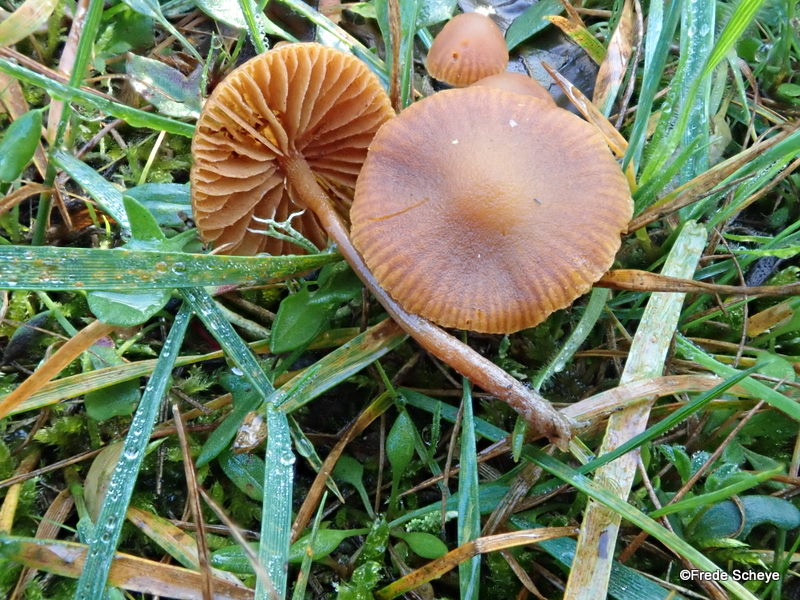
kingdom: Fungi
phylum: Basidiomycota
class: Agaricomycetes
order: Agaricales
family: Tubariaceae
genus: Tubaria
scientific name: Tubaria furfuracea
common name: kliddet fnughat
